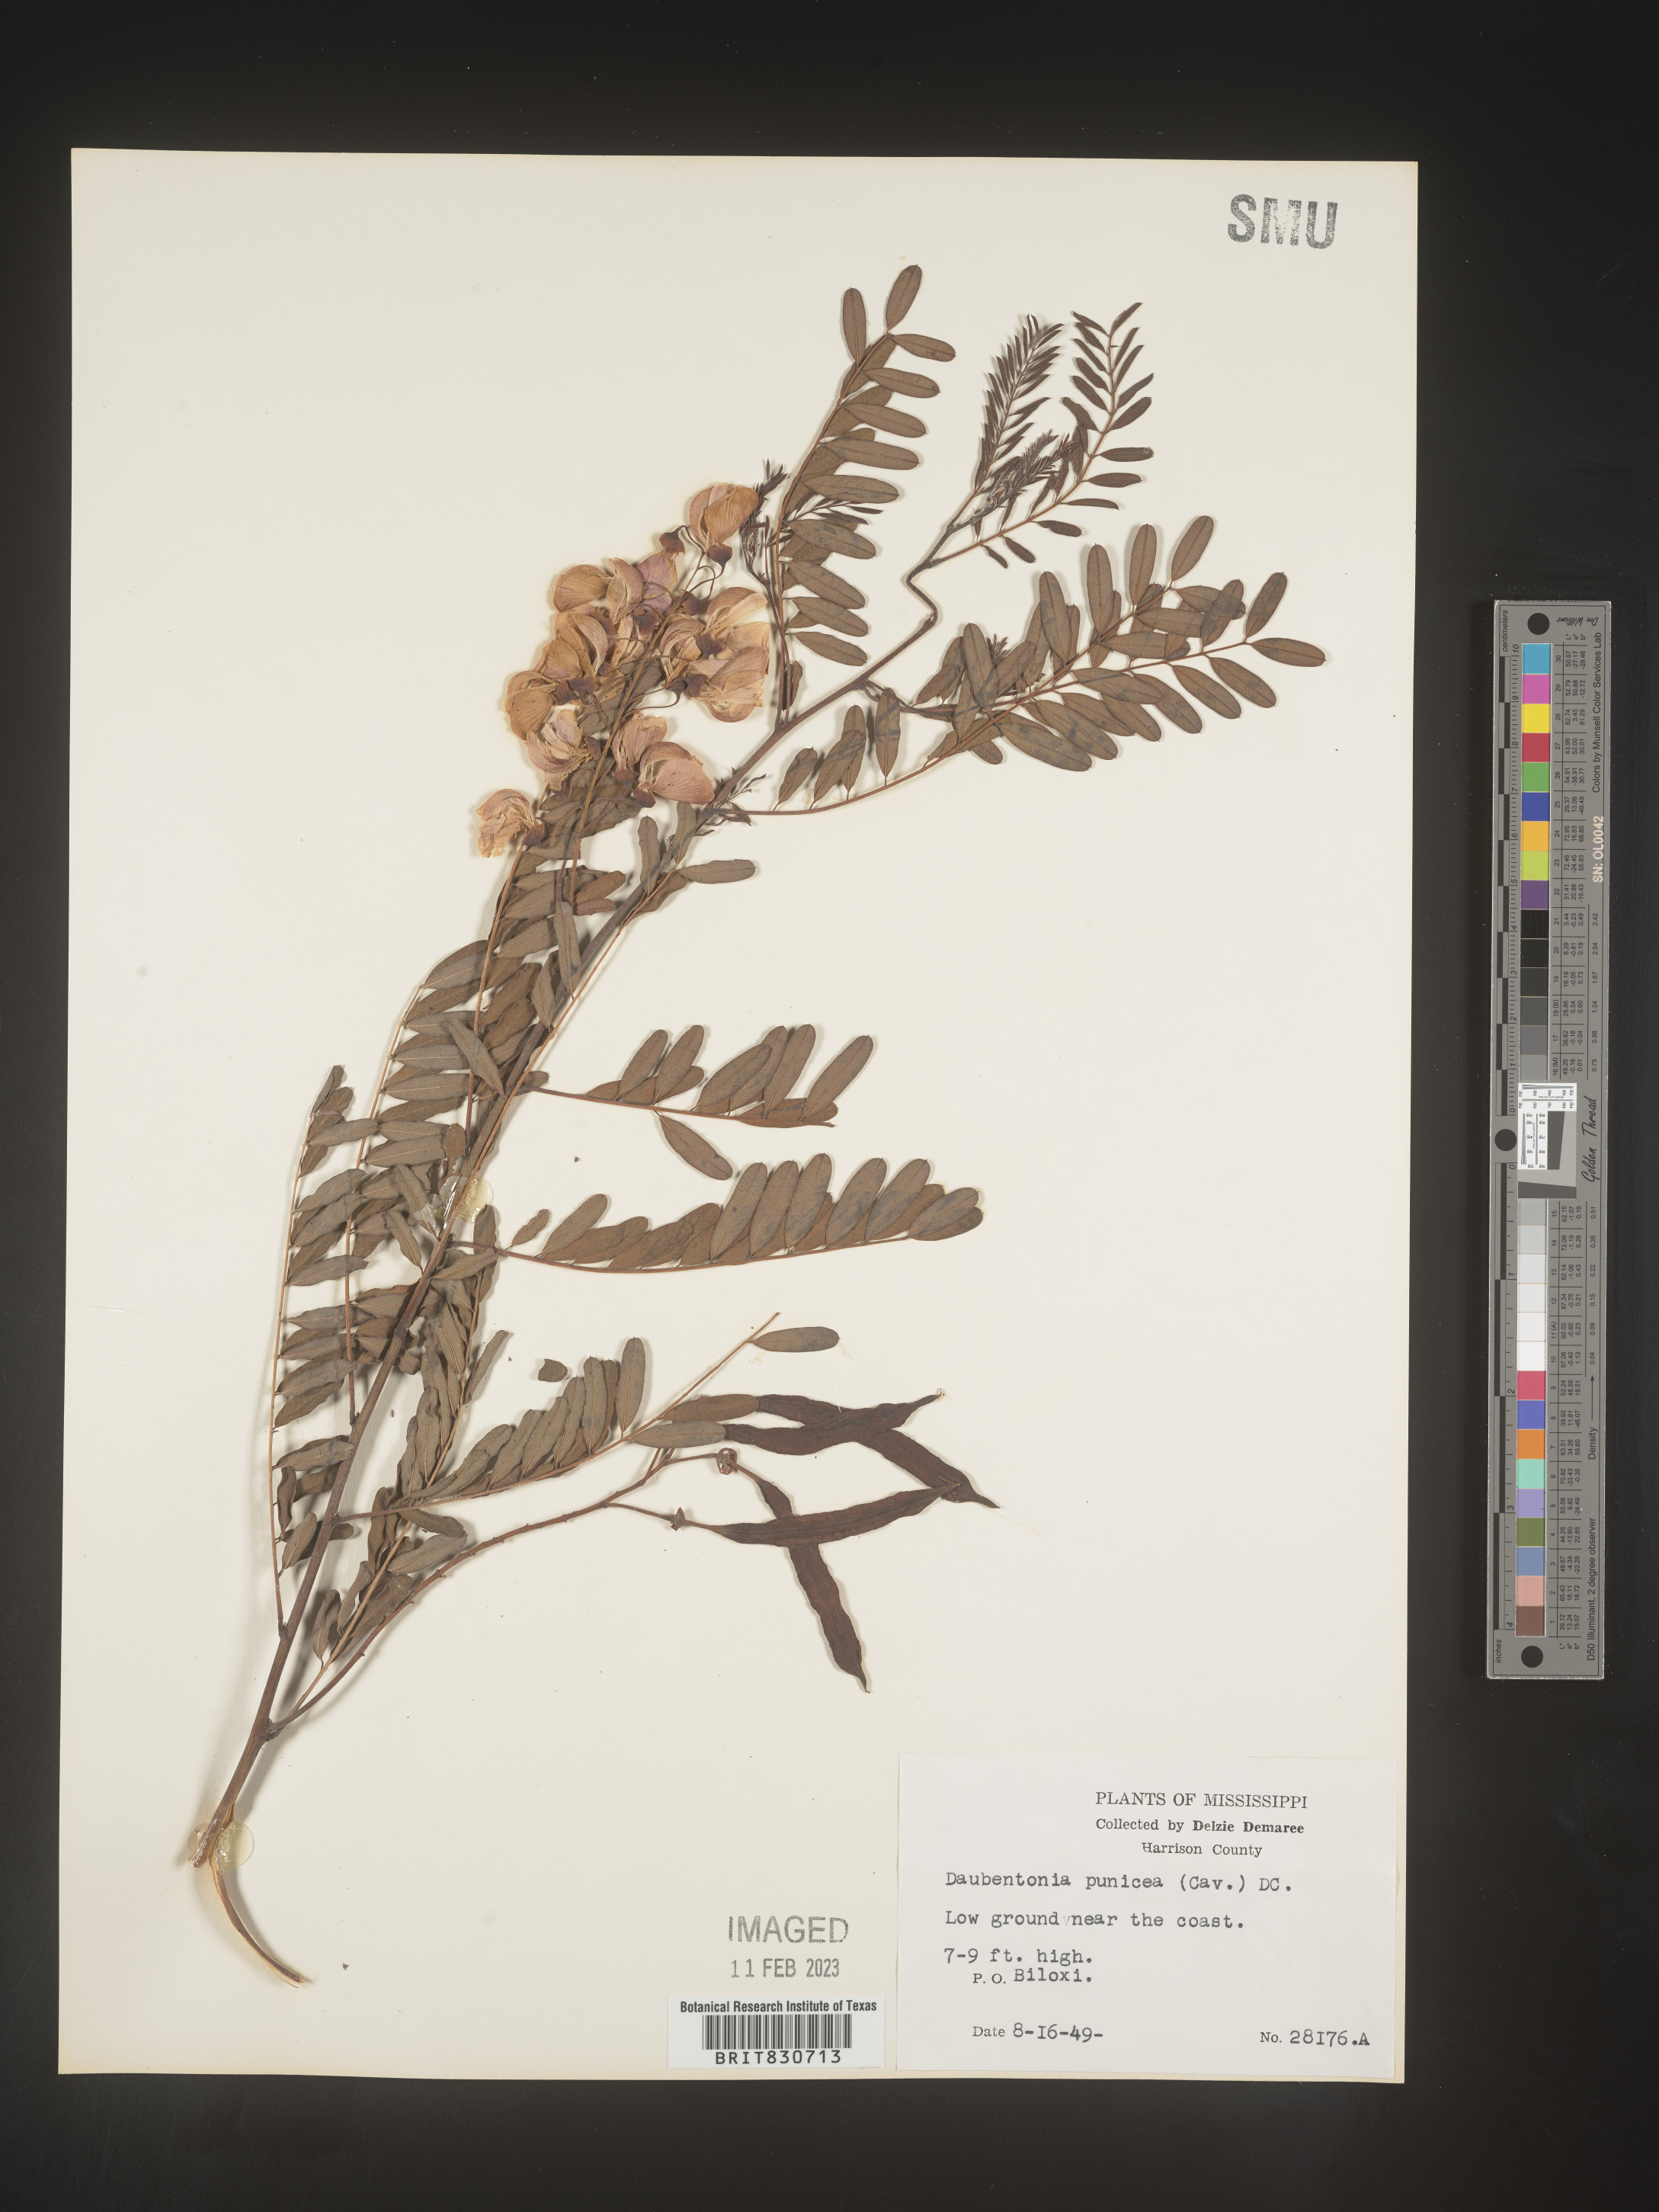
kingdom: Plantae
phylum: Tracheophyta
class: Magnoliopsida
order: Fabales
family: Fabaceae
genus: Sesbania
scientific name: Sesbania punicea
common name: Rattlebox
